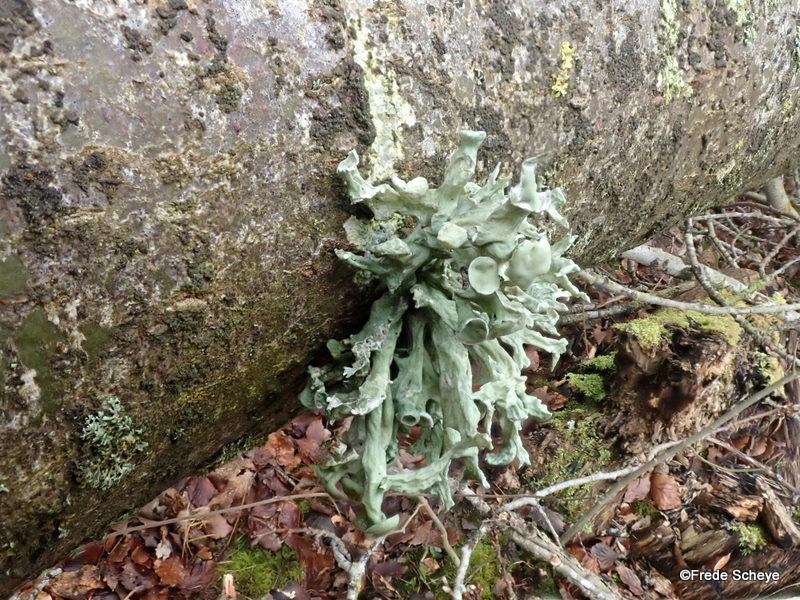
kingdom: Fungi
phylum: Ascomycota
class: Lecanoromycetes
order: Lecanorales
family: Ramalinaceae
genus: Ramalina
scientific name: Ramalina fastigiata
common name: tue-grenlav
